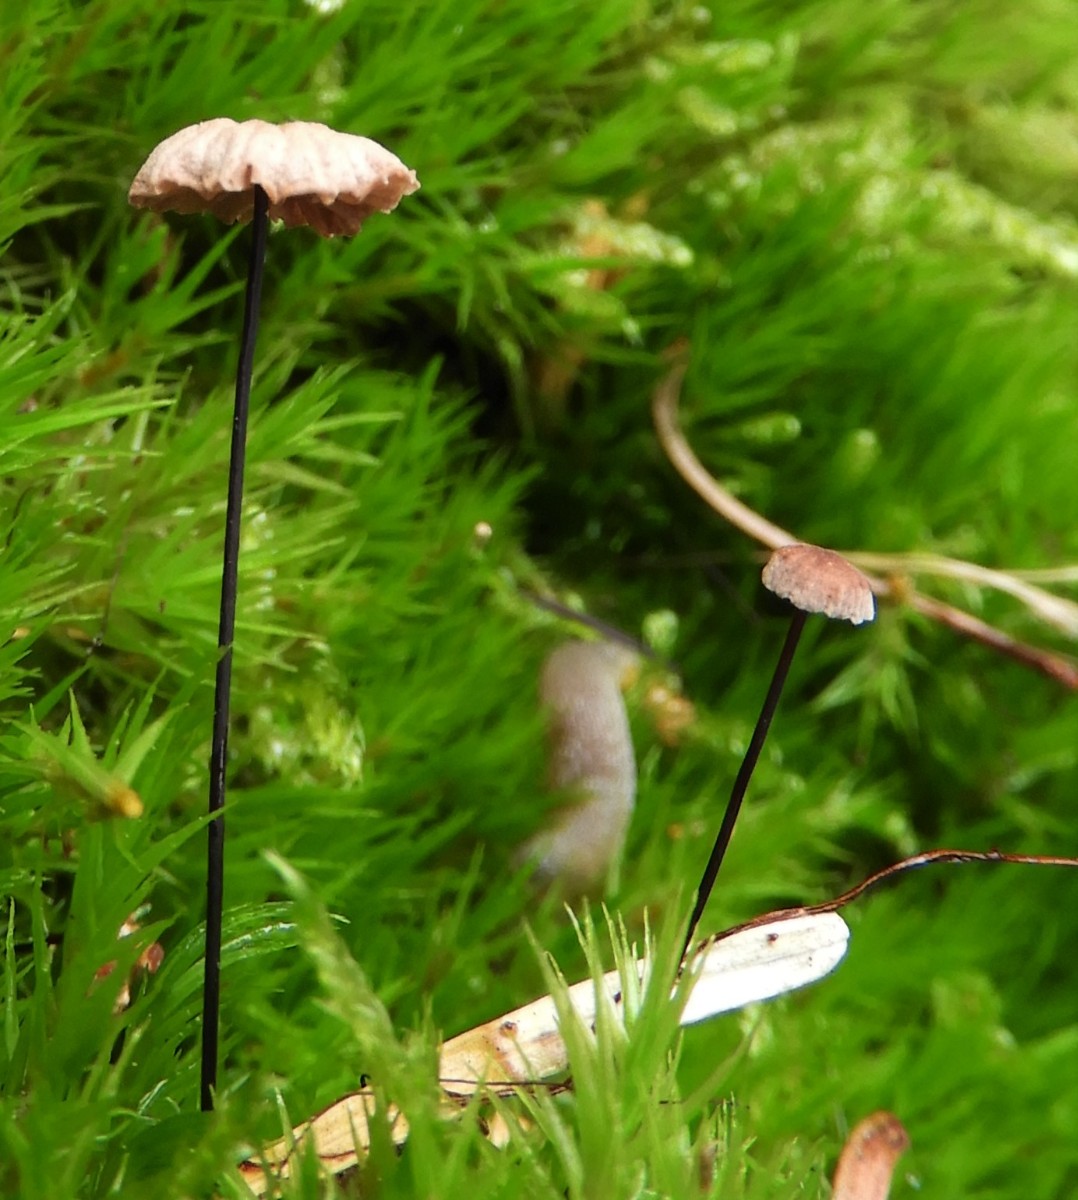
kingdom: Fungi
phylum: Basidiomycota
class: Agaricomycetes
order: Agaricales
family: Omphalotaceae
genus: Gymnopus
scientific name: Gymnopus androsaceus
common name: trådstokket fladhat
